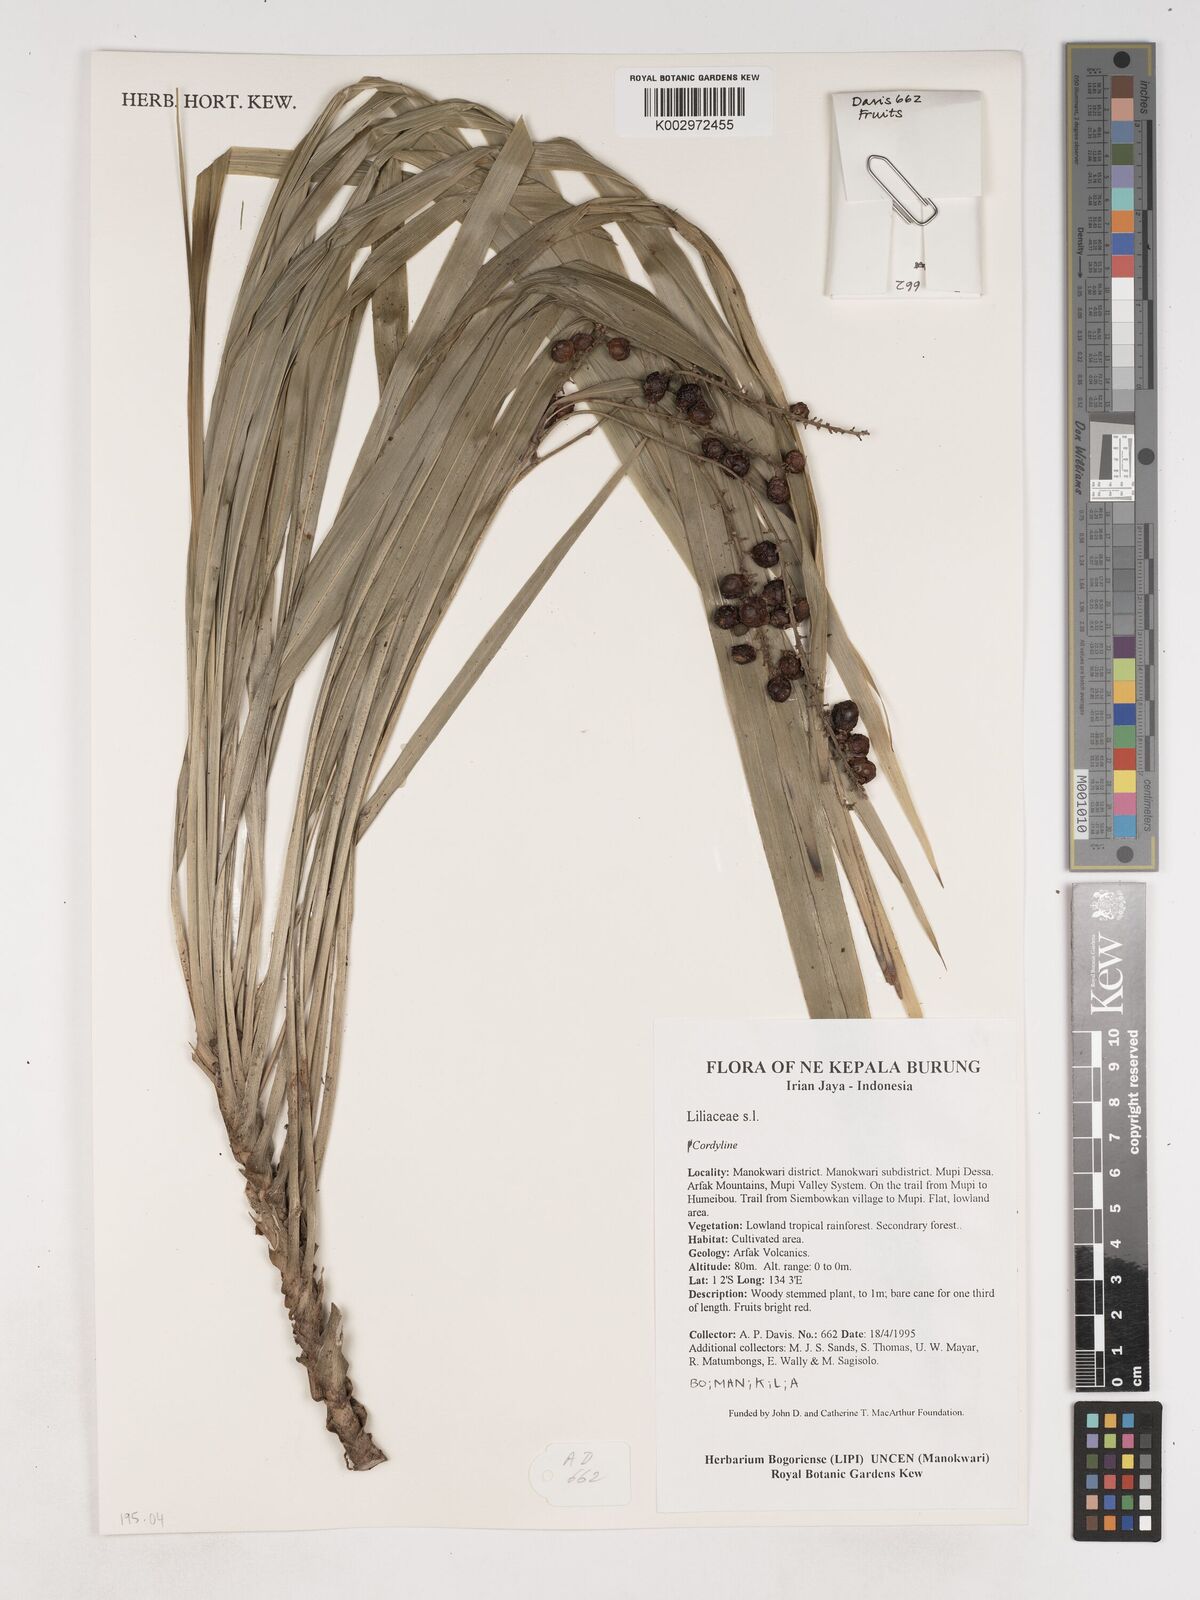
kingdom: Plantae
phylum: Tracheophyta
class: Liliopsida
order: Asparagales
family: Asparagaceae
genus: Cordyline
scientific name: Cordyline angustissima
